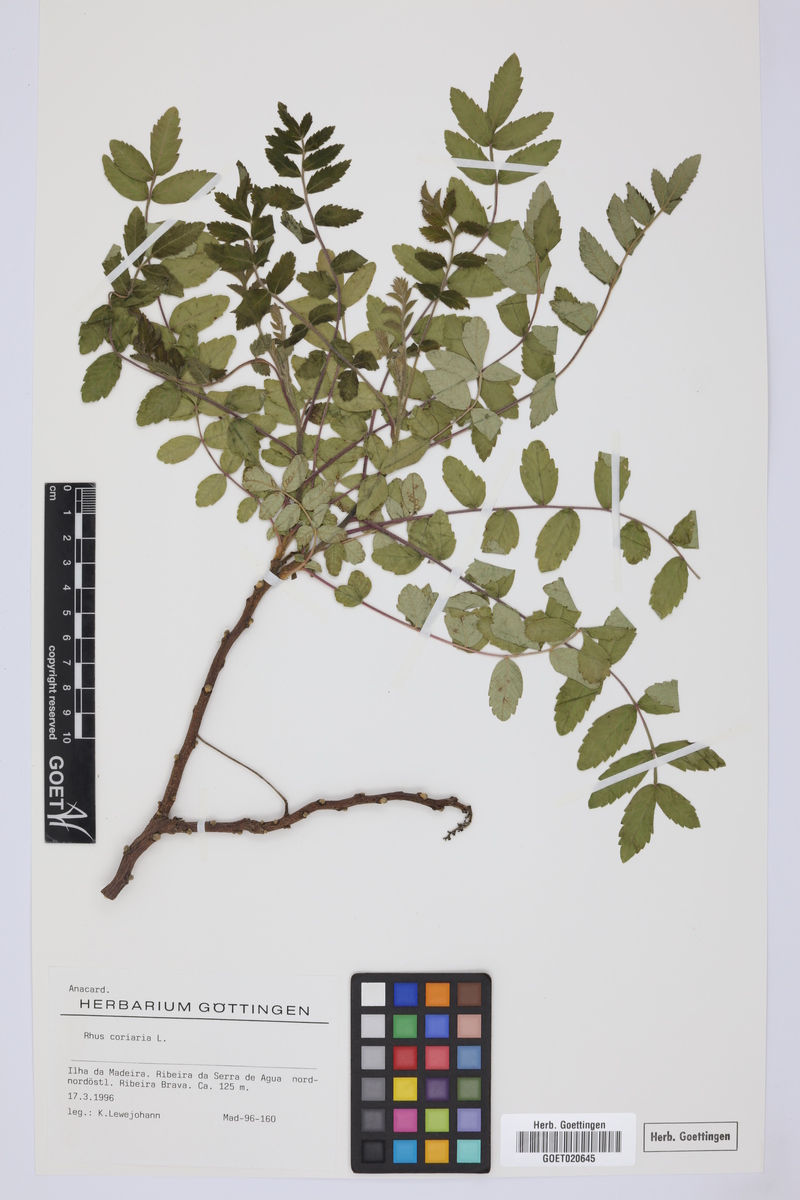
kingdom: Plantae
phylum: Tracheophyta
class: Magnoliopsida
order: Sapindales
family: Anacardiaceae
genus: Rhus
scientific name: Rhus coriaria
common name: Tanner's sumach
